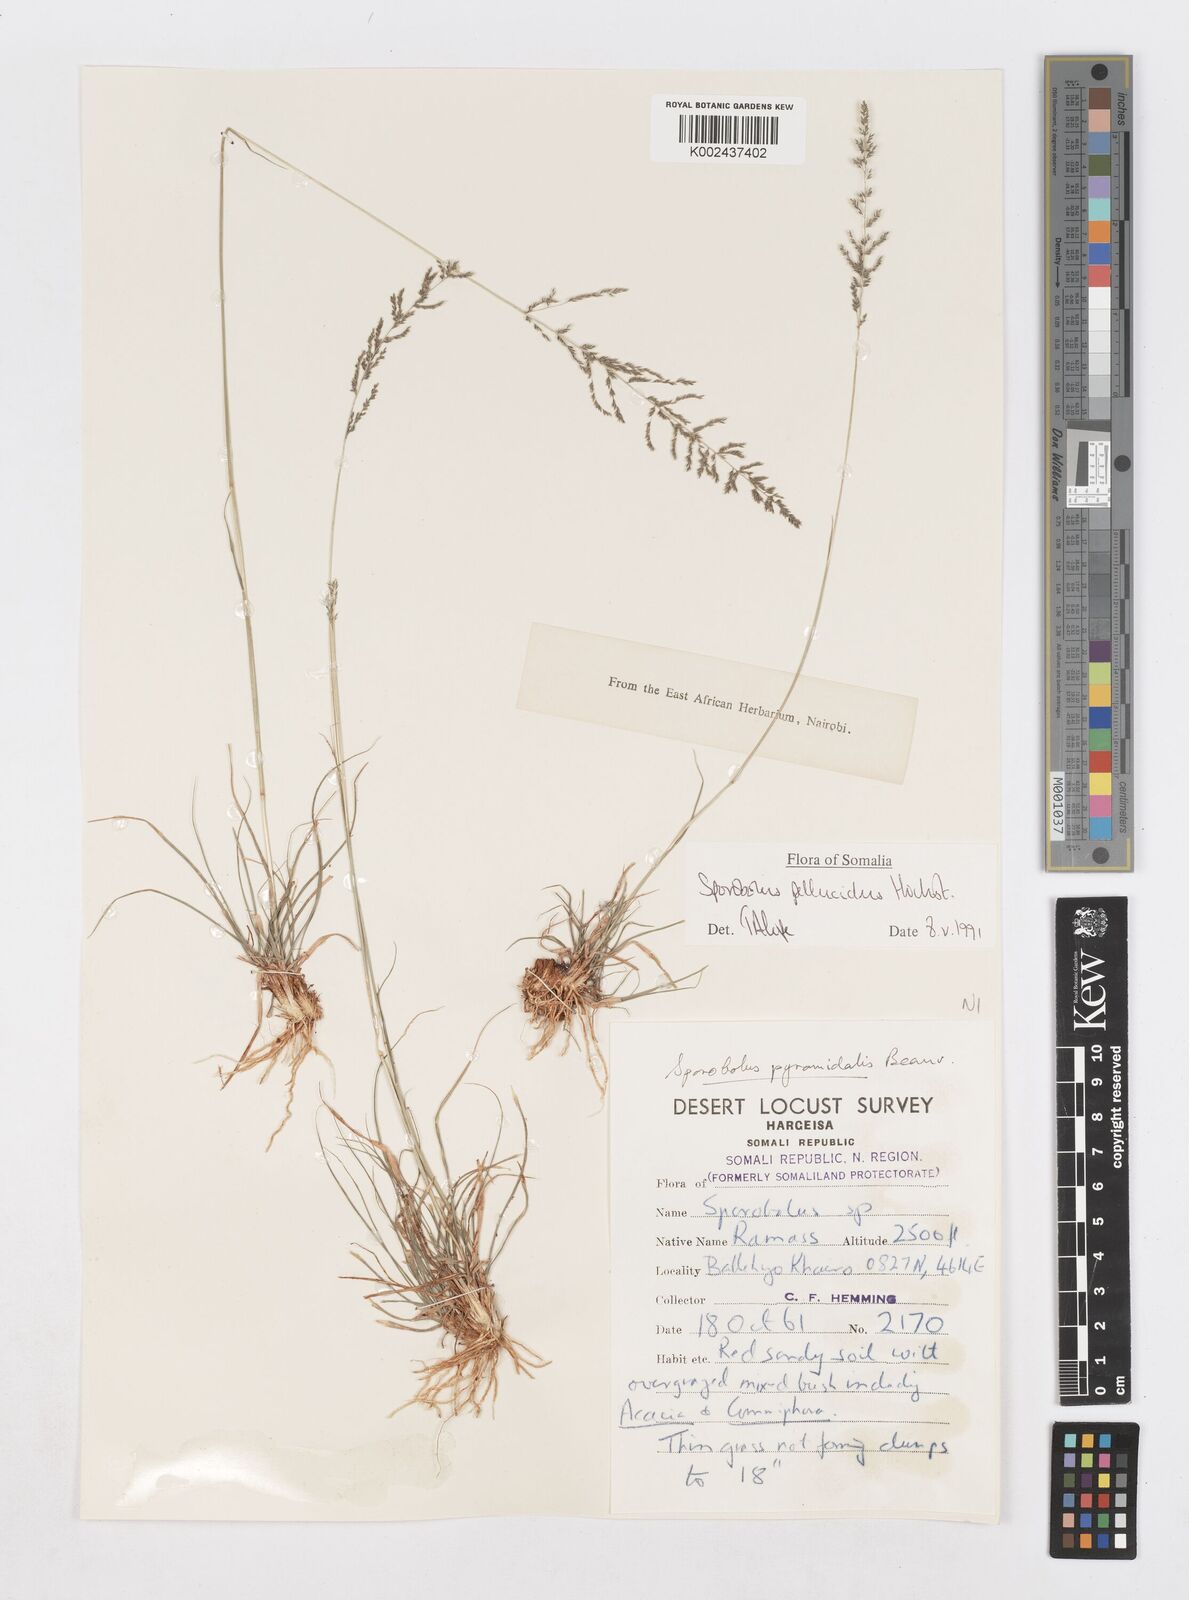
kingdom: Plantae
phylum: Tracheophyta
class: Liliopsida
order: Poales
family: Poaceae
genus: Sporobolus
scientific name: Sporobolus pellucidus
